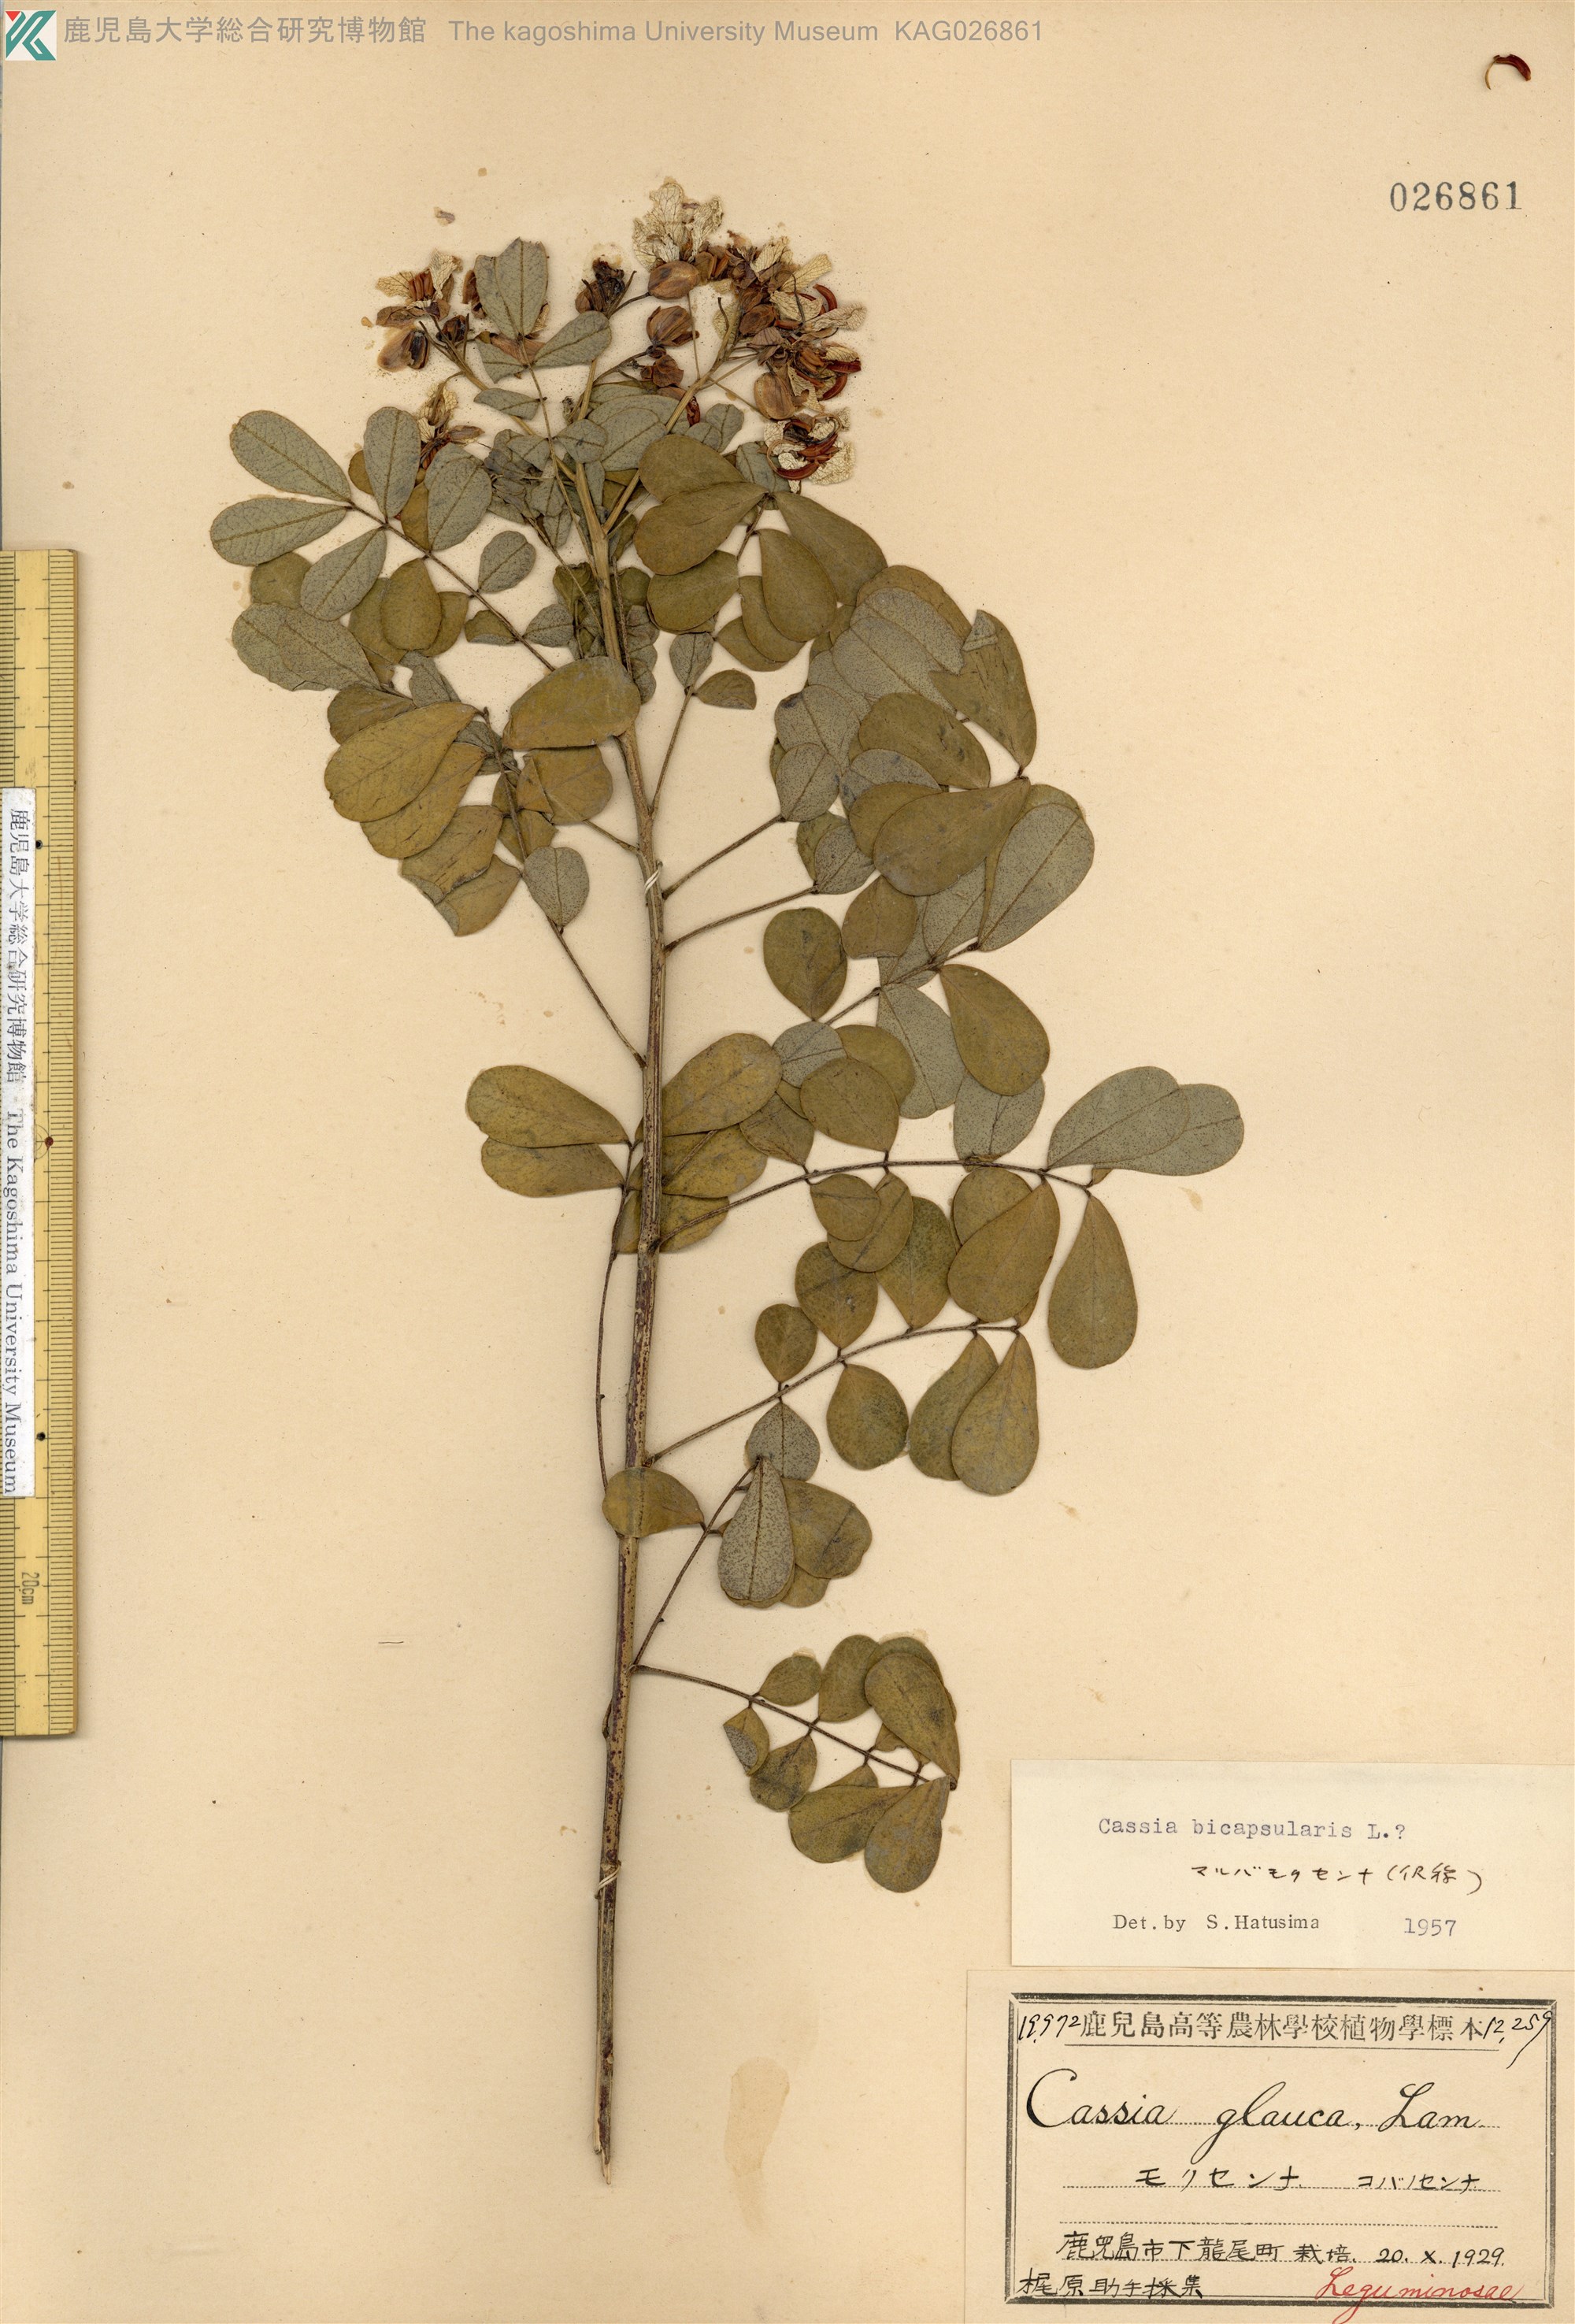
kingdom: Plantae
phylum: Tracheophyta
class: Magnoliopsida
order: Fabales
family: Fabaceae
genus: Cassia
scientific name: Cassia
